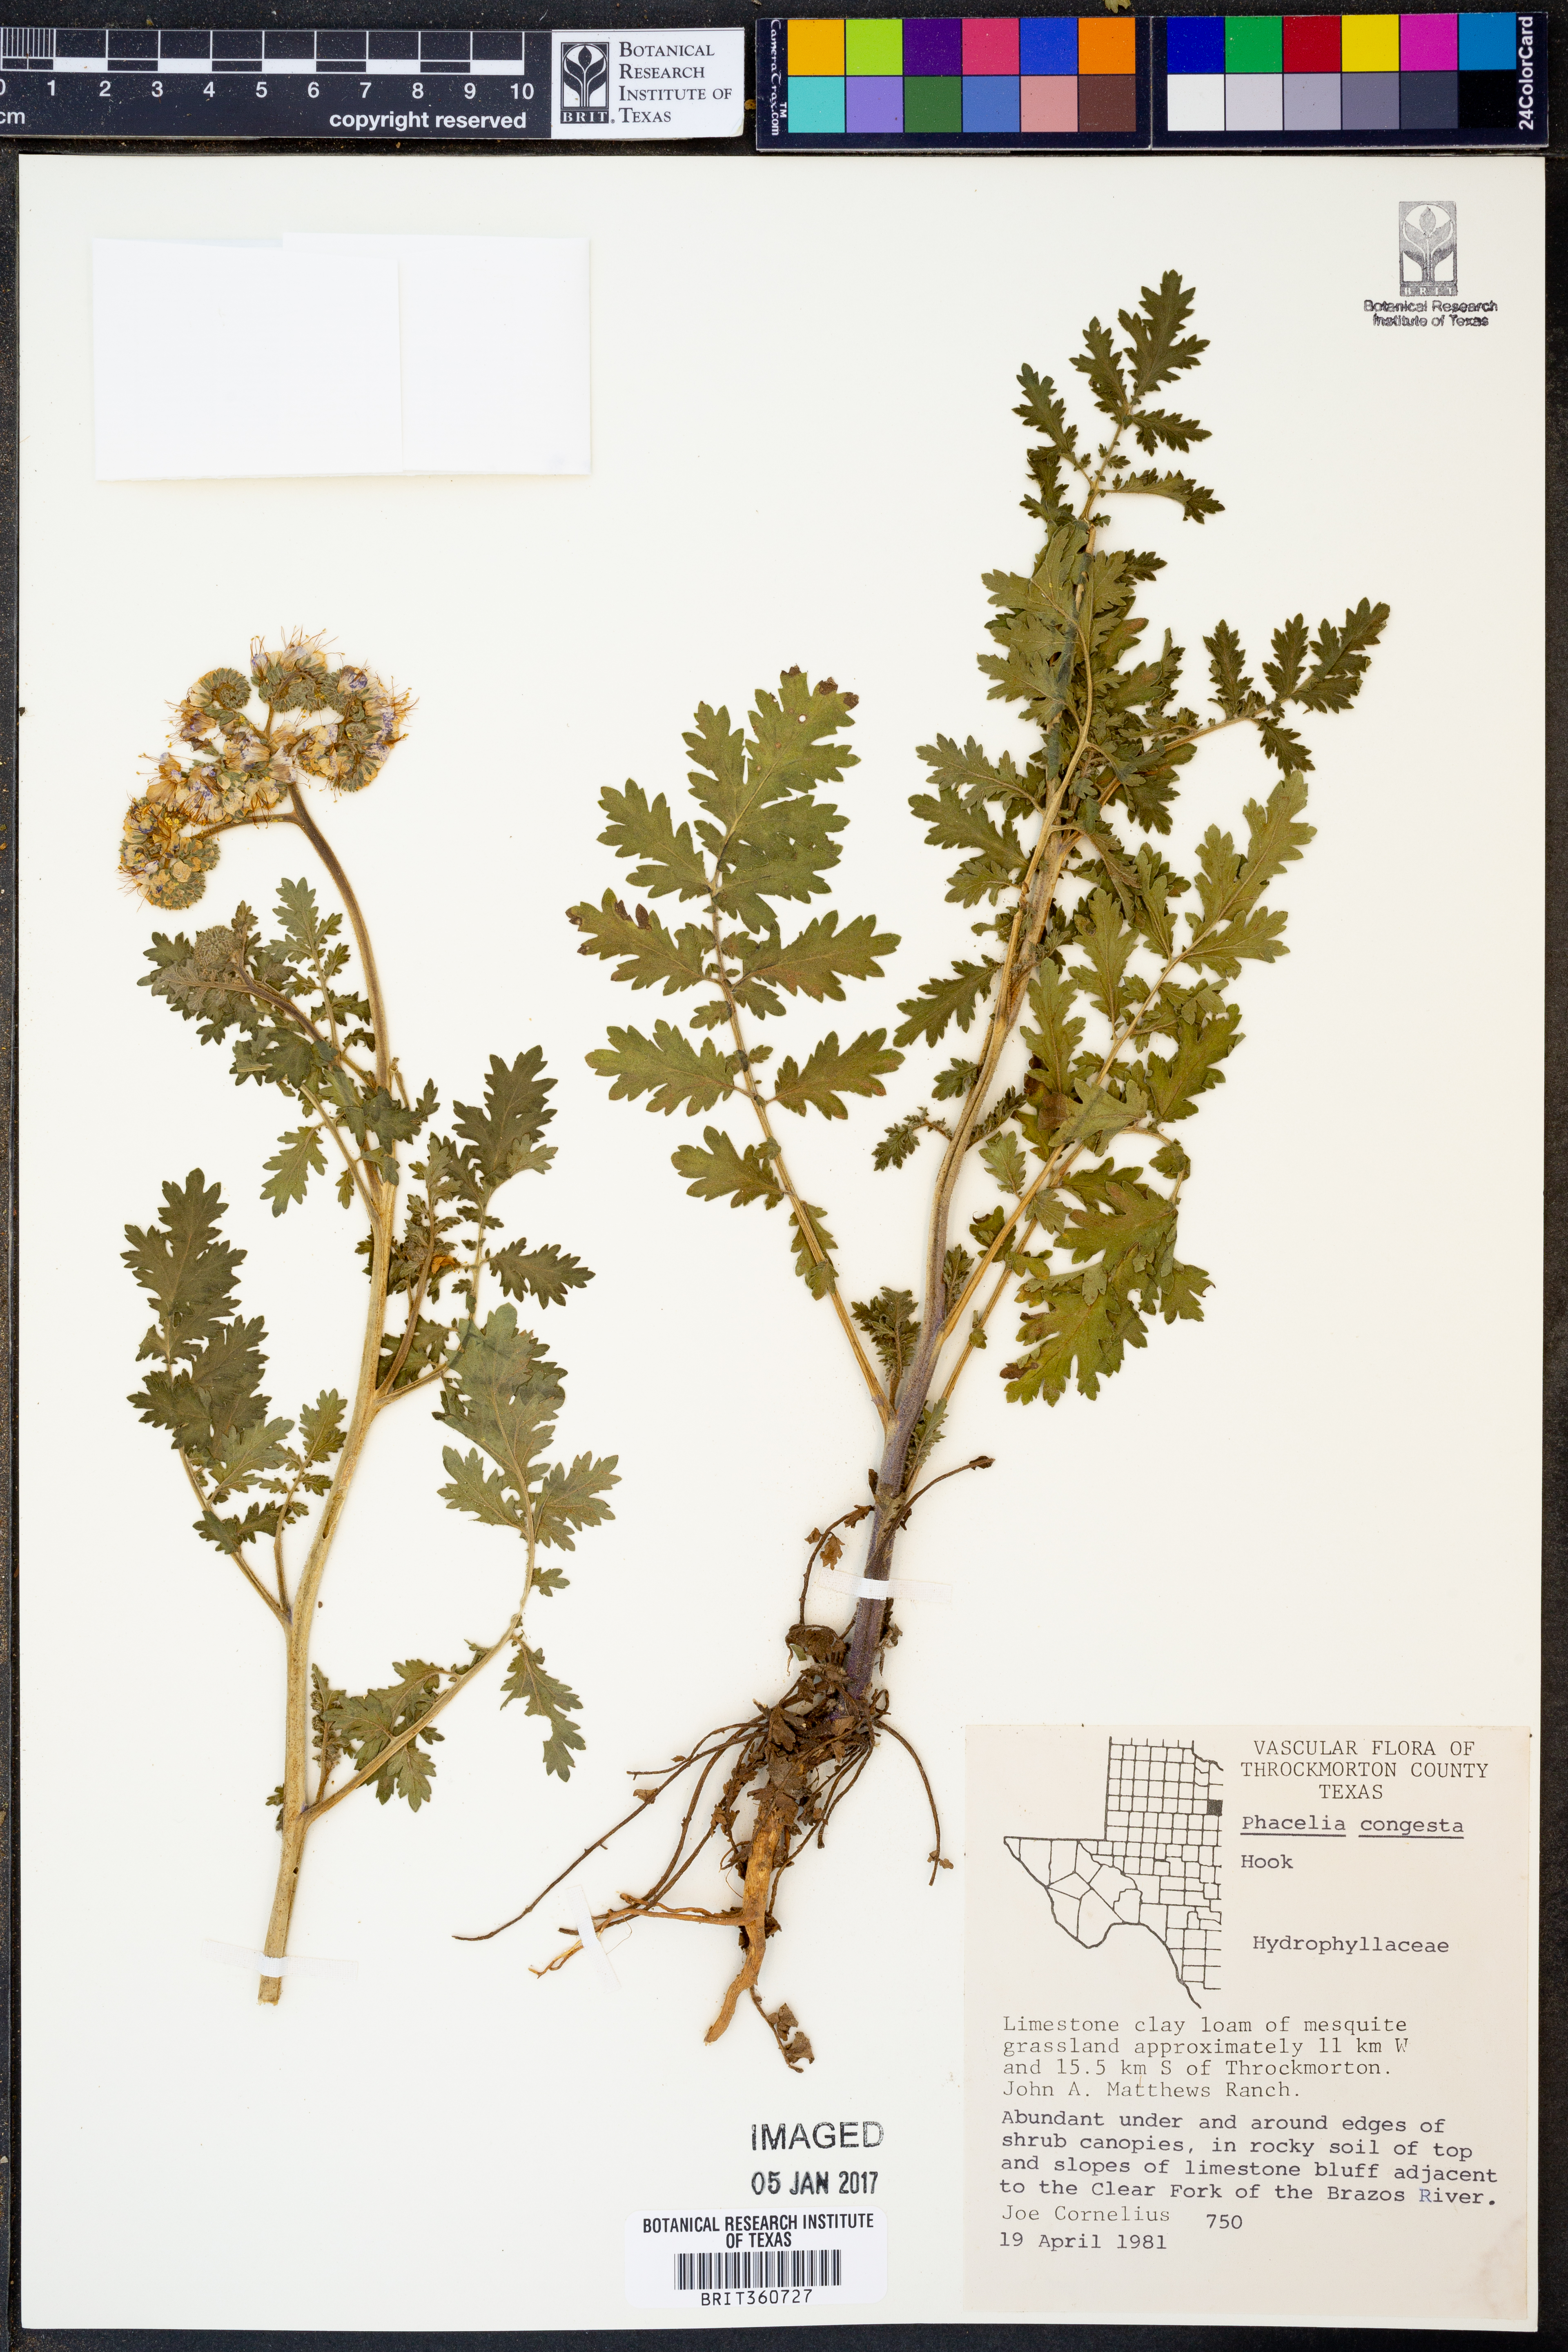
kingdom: Plantae
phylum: Tracheophyta
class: Magnoliopsida
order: Boraginales
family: Hydrophyllaceae
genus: Phacelia
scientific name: Phacelia congesta
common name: Blue curls
